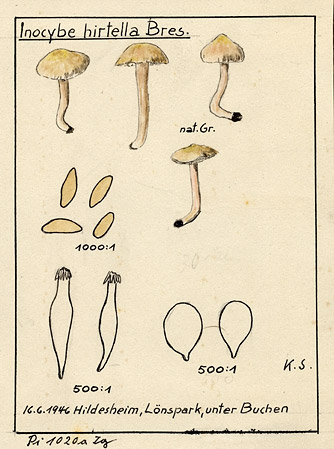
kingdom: Plantae
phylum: Tracheophyta
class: Magnoliopsida
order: Fagales
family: Fagaceae
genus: Fagus
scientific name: Fagus
